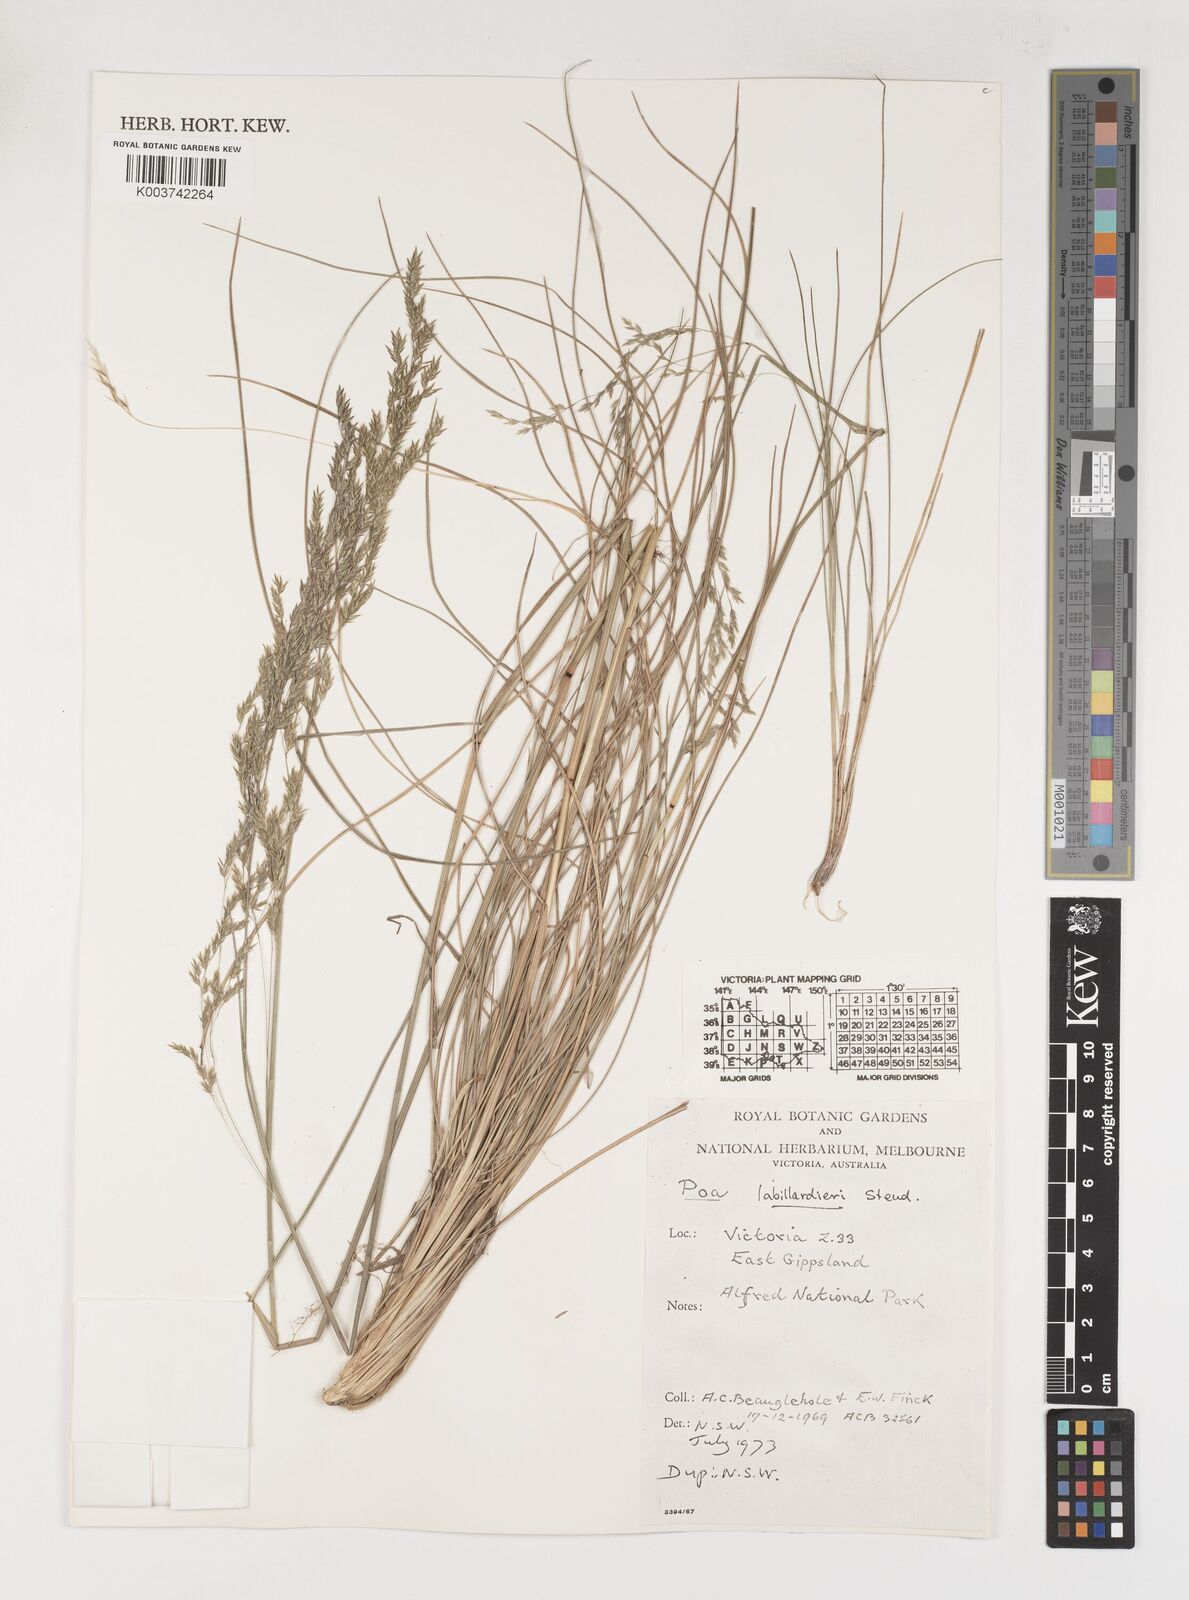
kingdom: Plantae
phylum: Tracheophyta
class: Liliopsida
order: Poales
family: Poaceae
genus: Poa
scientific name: Poa labillardierei
